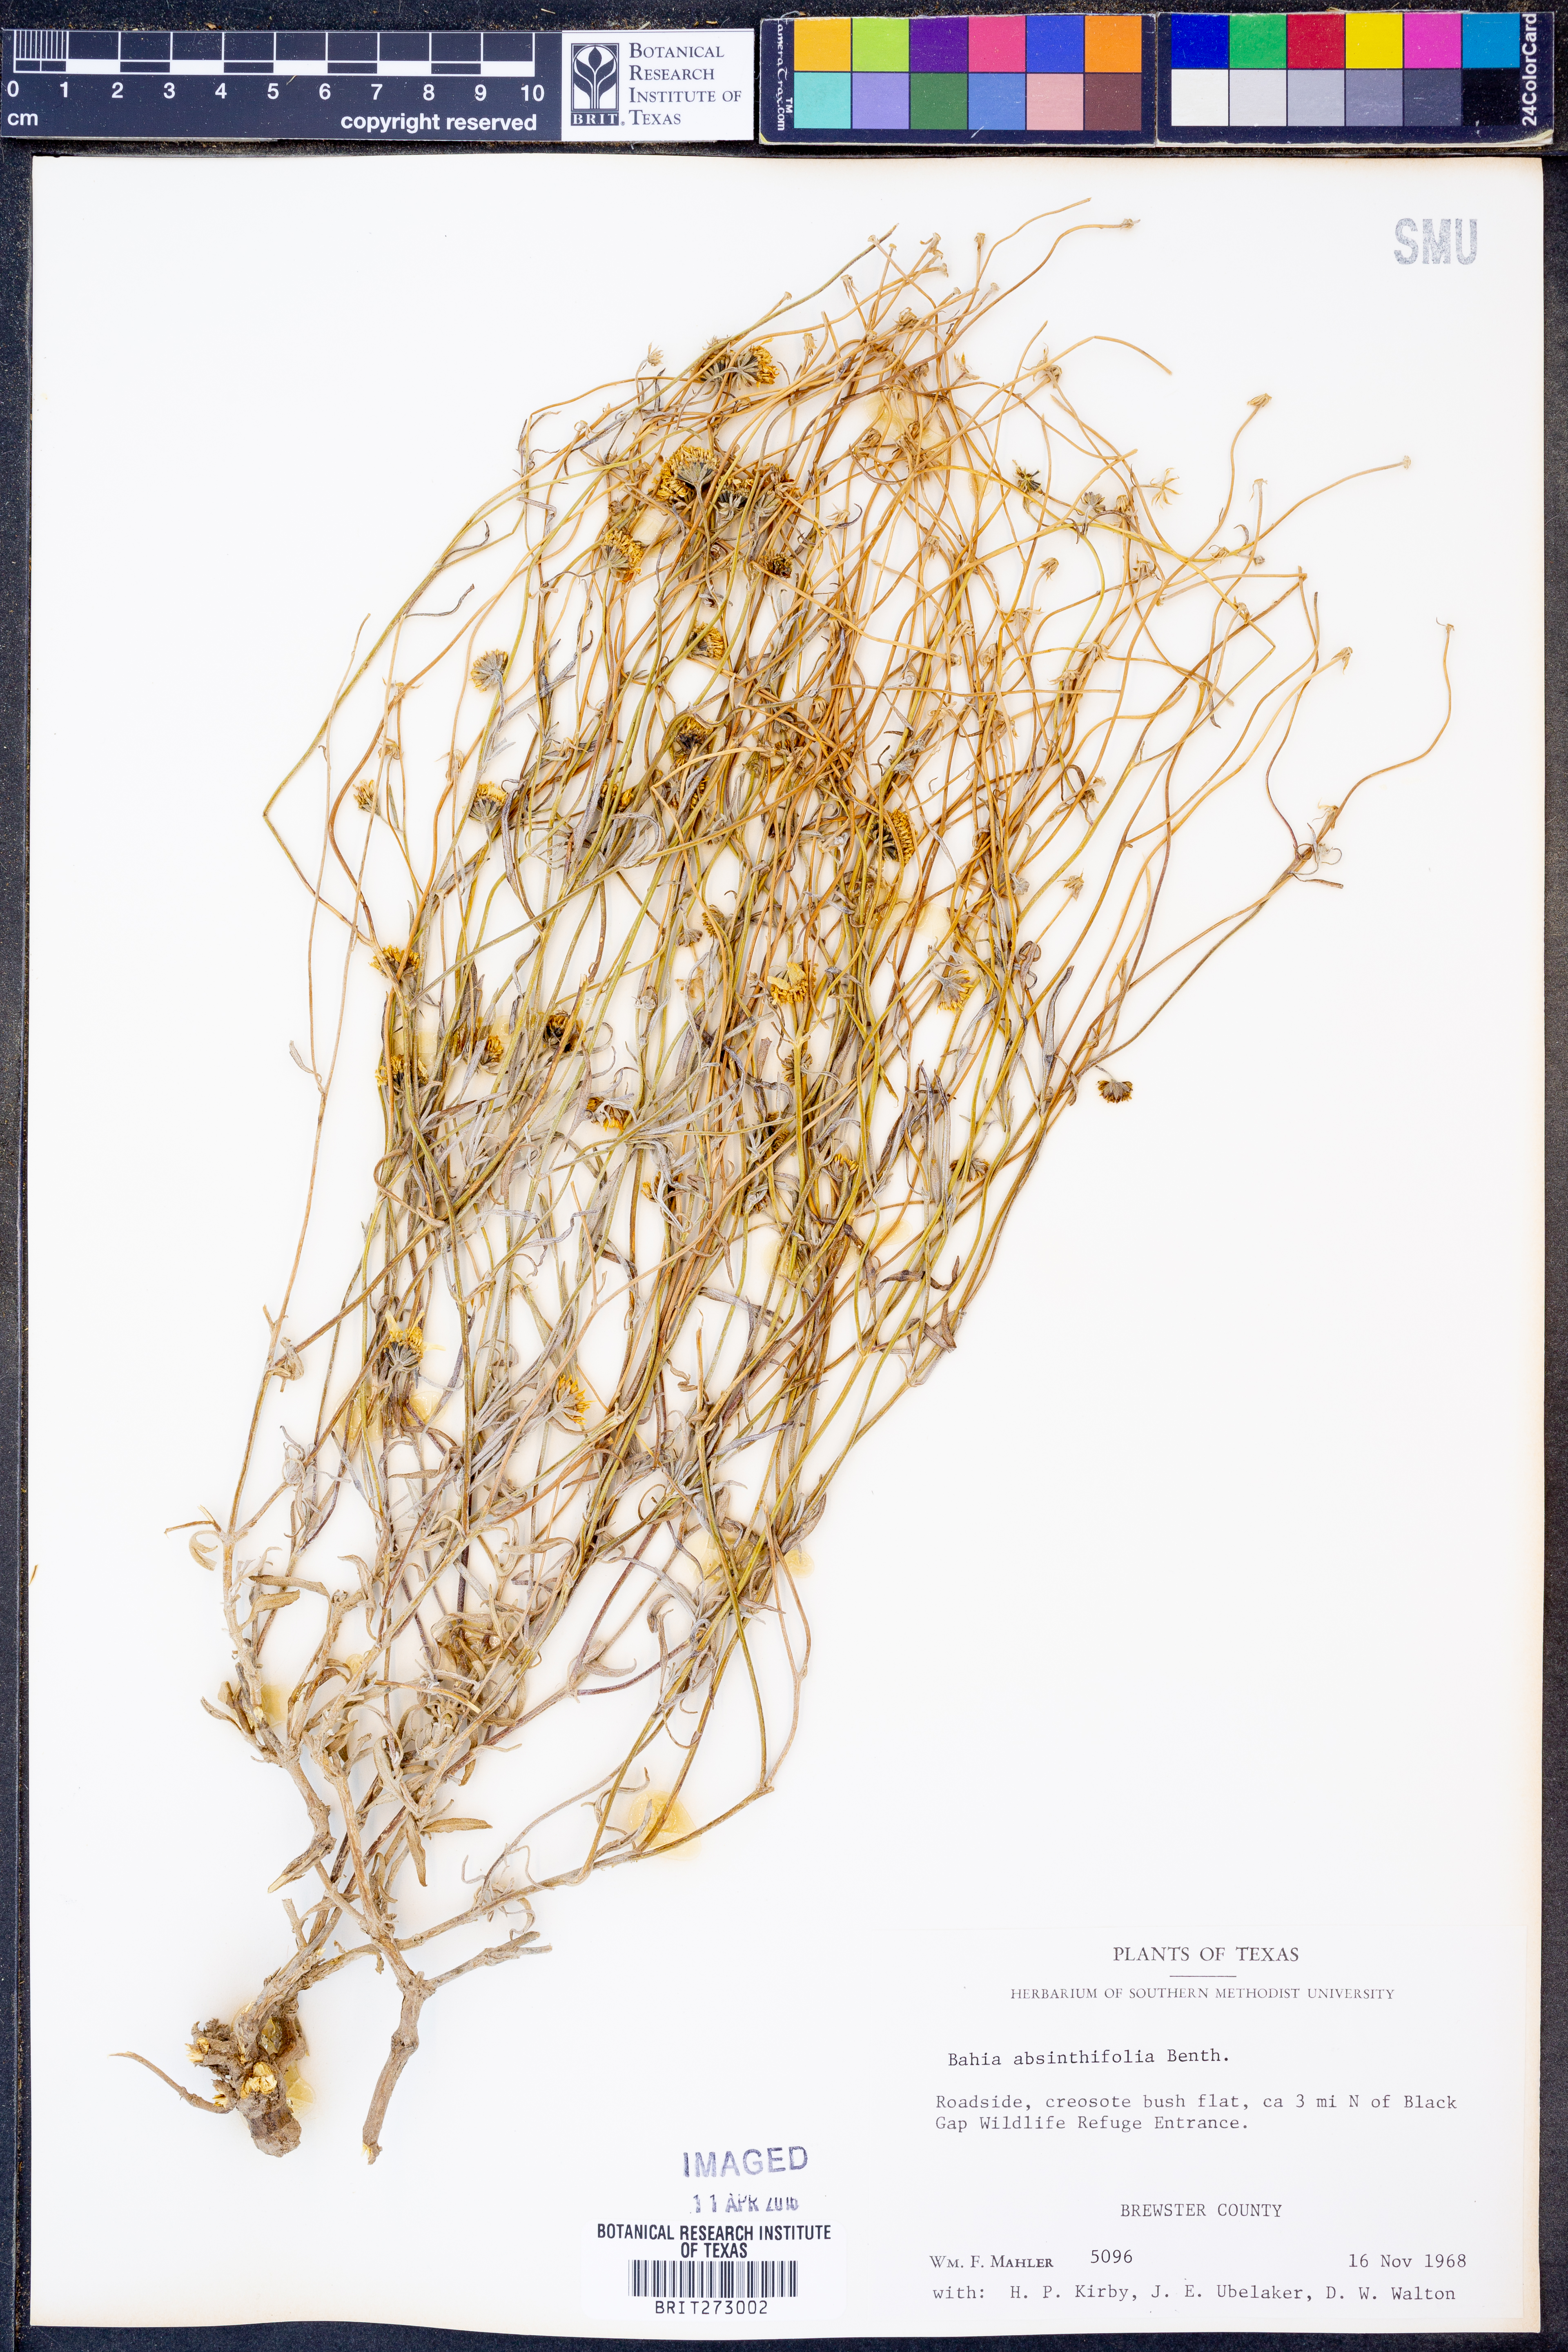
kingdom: Plantae
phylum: Tracheophyta
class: Magnoliopsida
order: Asterales
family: Asteraceae
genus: Picradeniopsis
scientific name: Picradeniopsis absinthifolia
